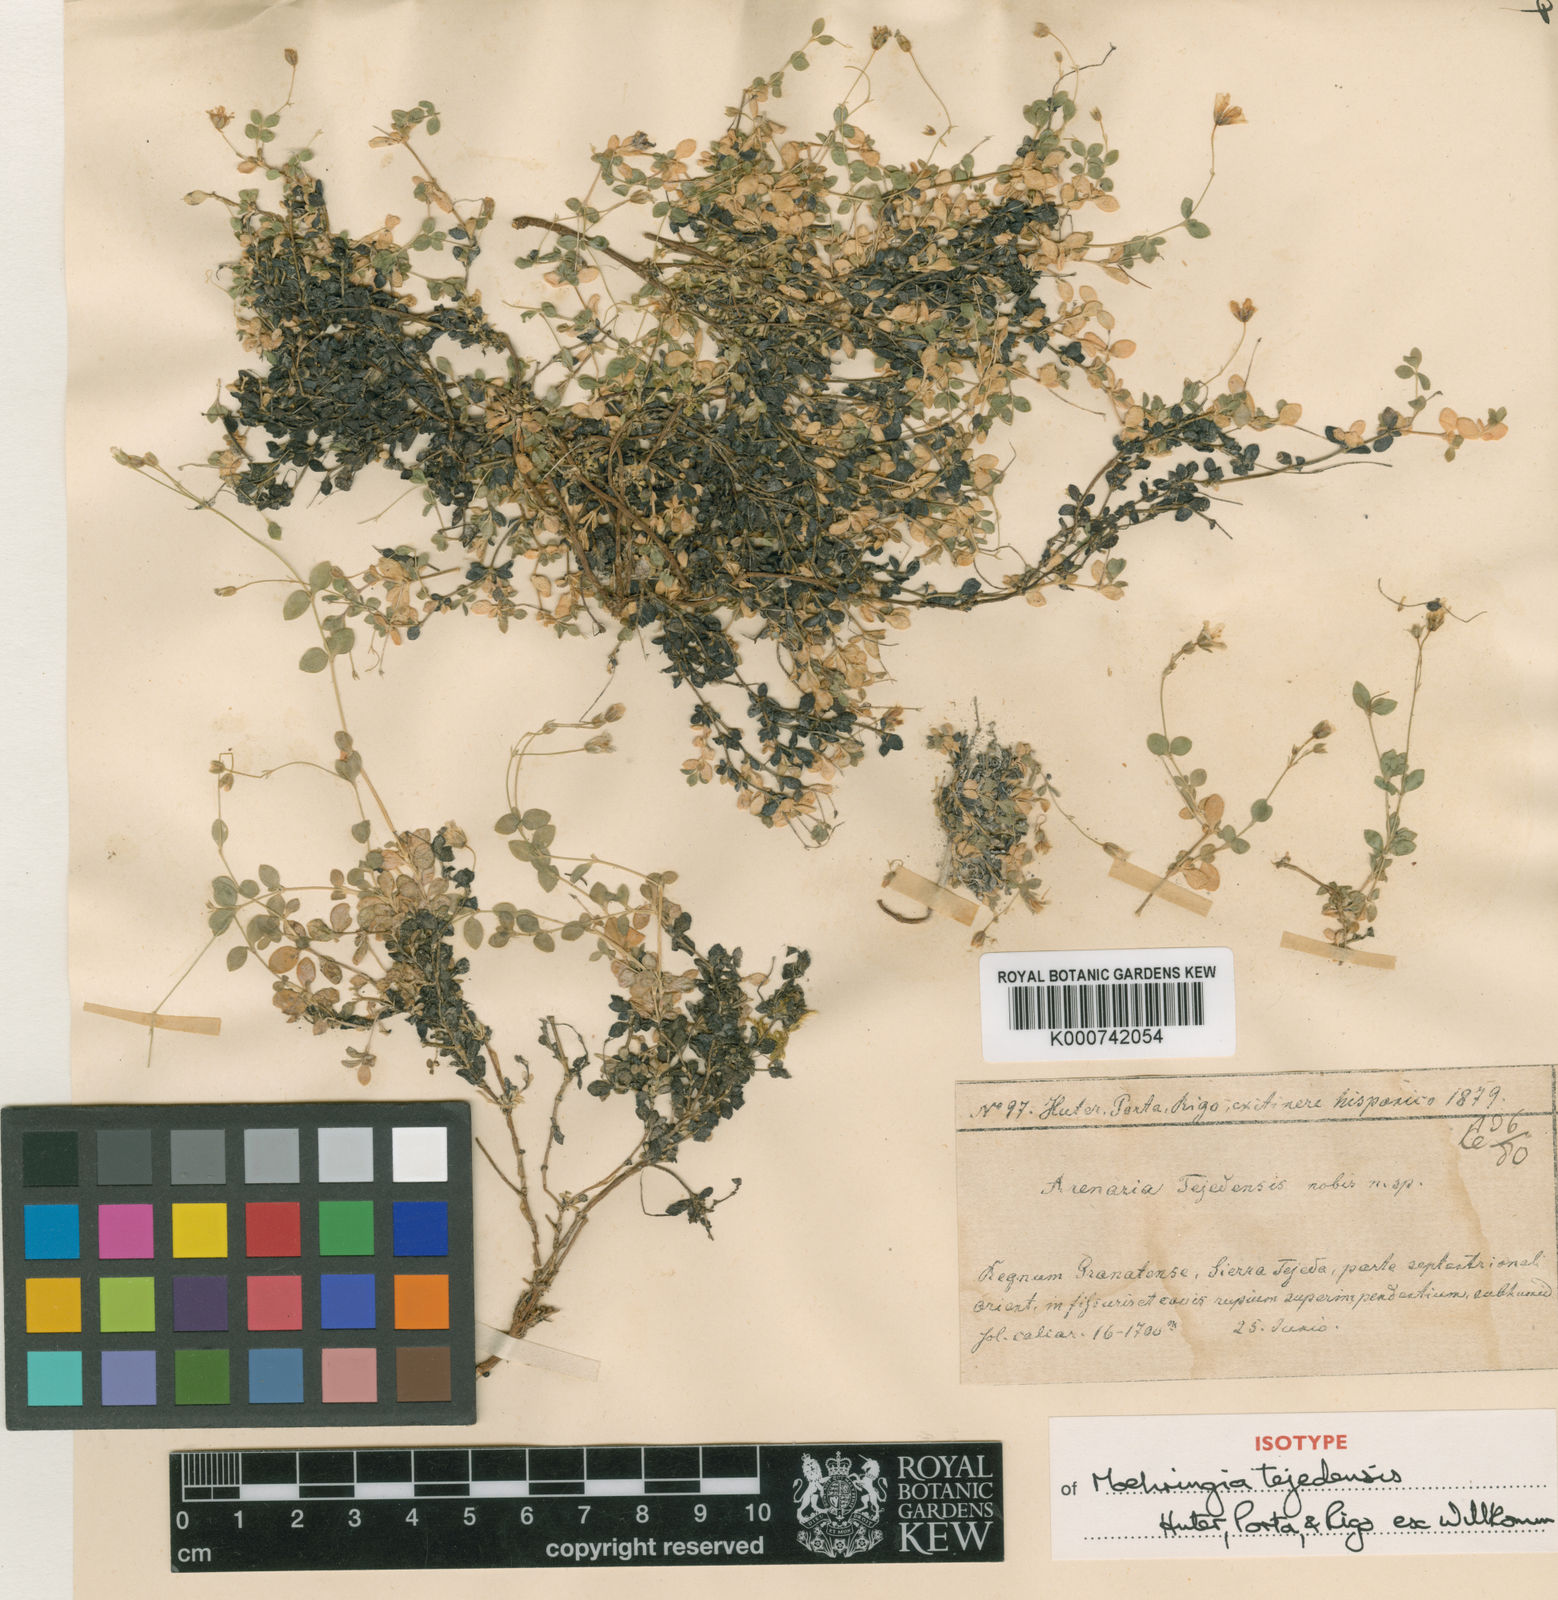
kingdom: Plantae
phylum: Tracheophyta
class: Magnoliopsida
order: Caryophyllales
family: Caryophyllaceae
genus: Arenaria
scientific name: Arenaria tejedensis
